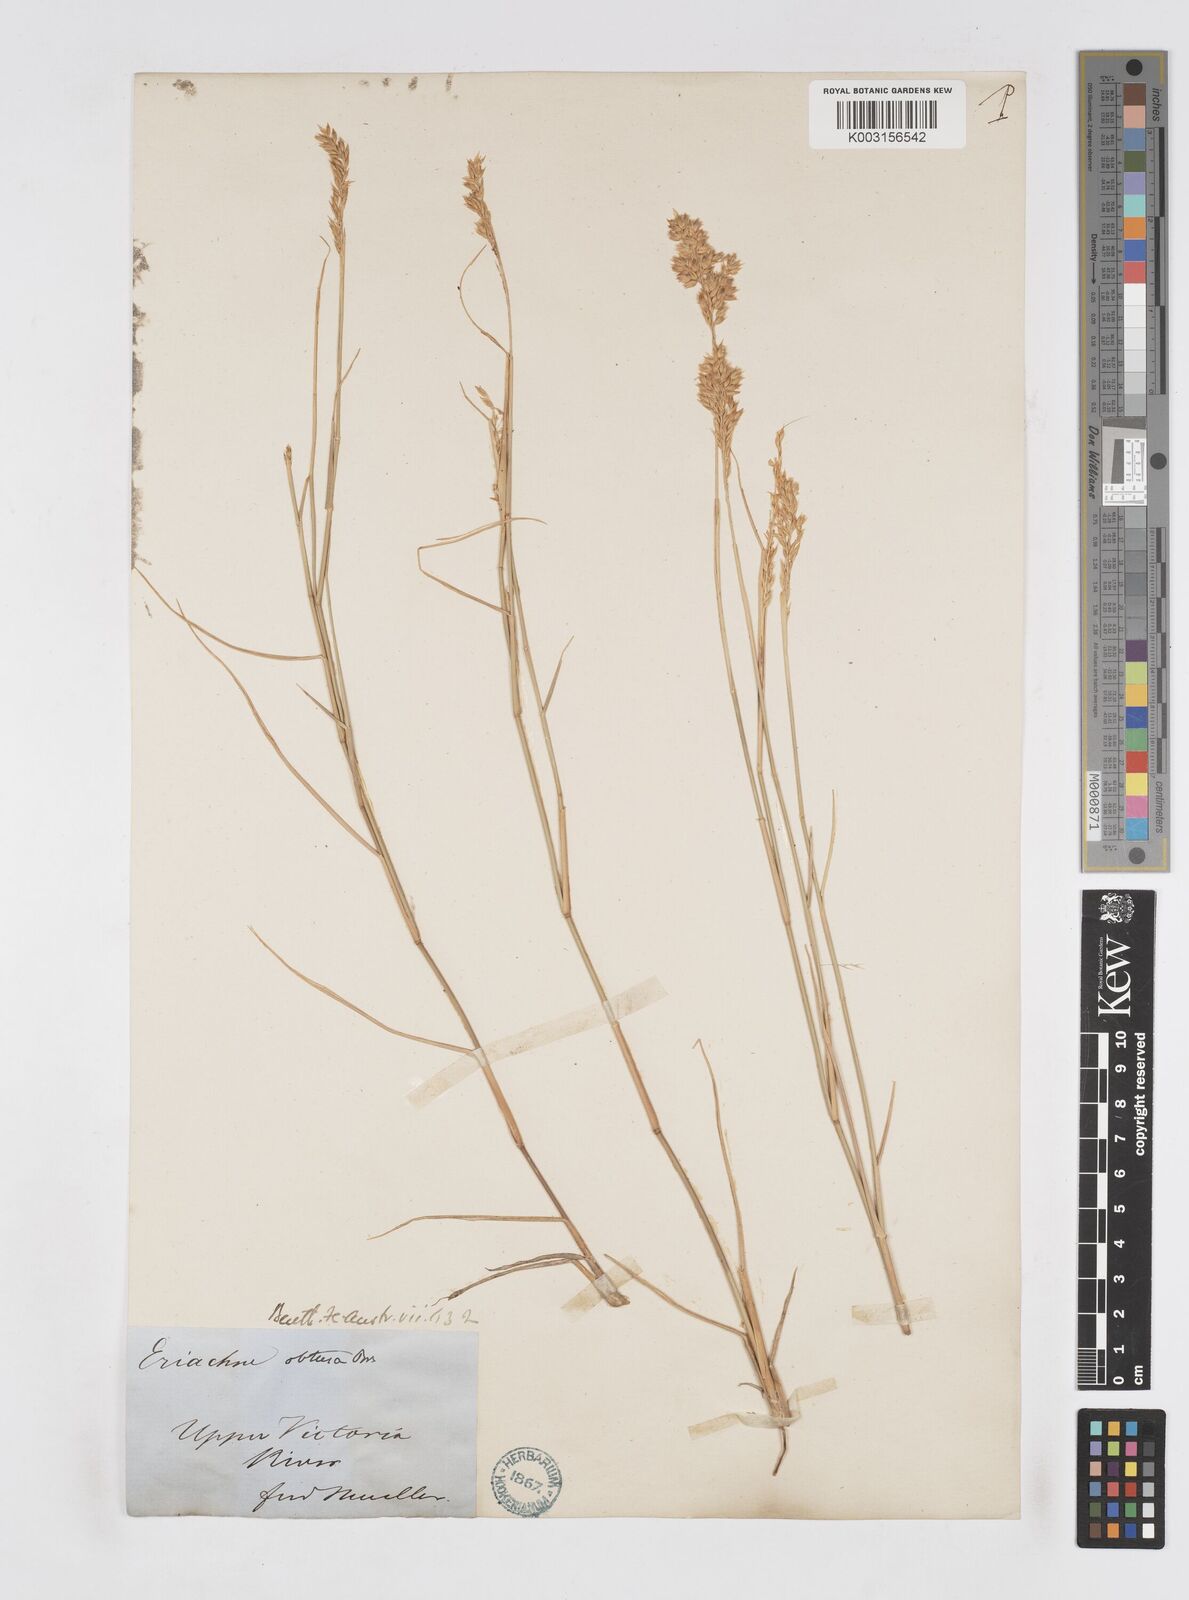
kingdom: Plantae
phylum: Tracheophyta
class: Liliopsida
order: Poales
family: Poaceae
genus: Eriachne
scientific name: Eriachne obtusa
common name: Northern wanderrie grass
